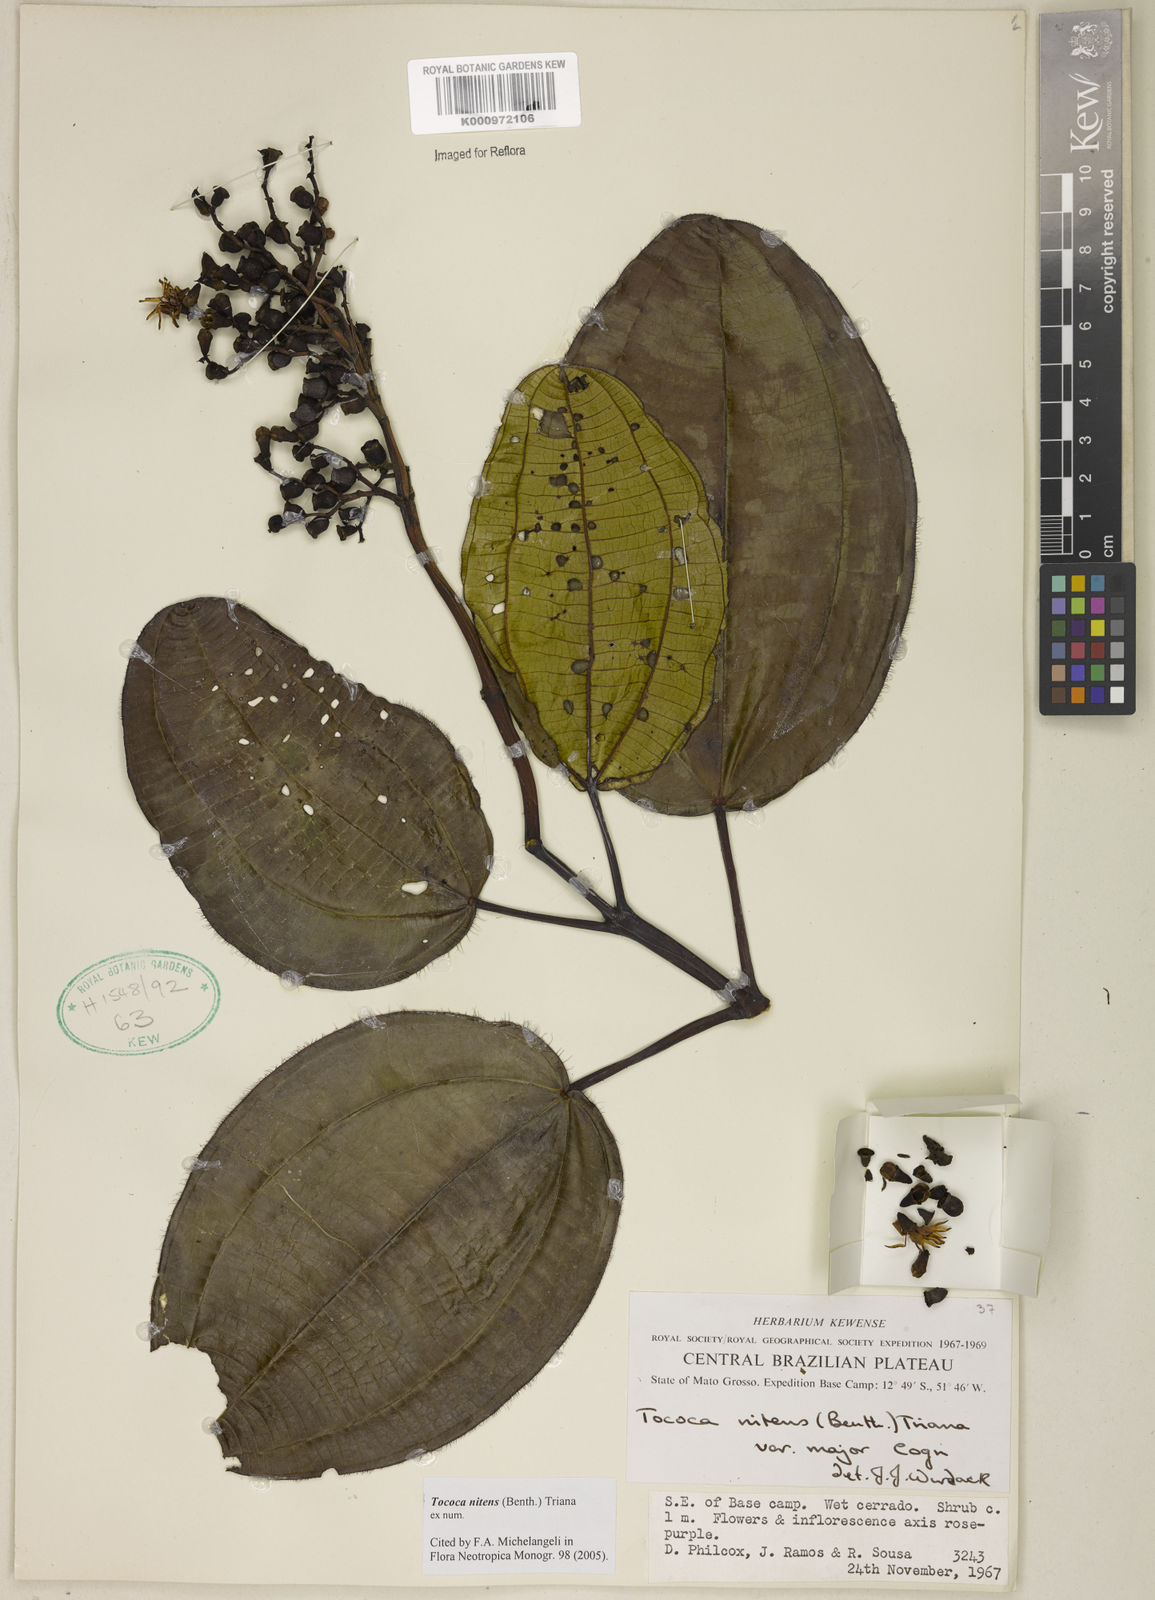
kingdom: Plantae
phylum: Tracheophyta
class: Magnoliopsida
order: Myrtales
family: Melastomataceae
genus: Miconia
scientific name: Miconia nitens
